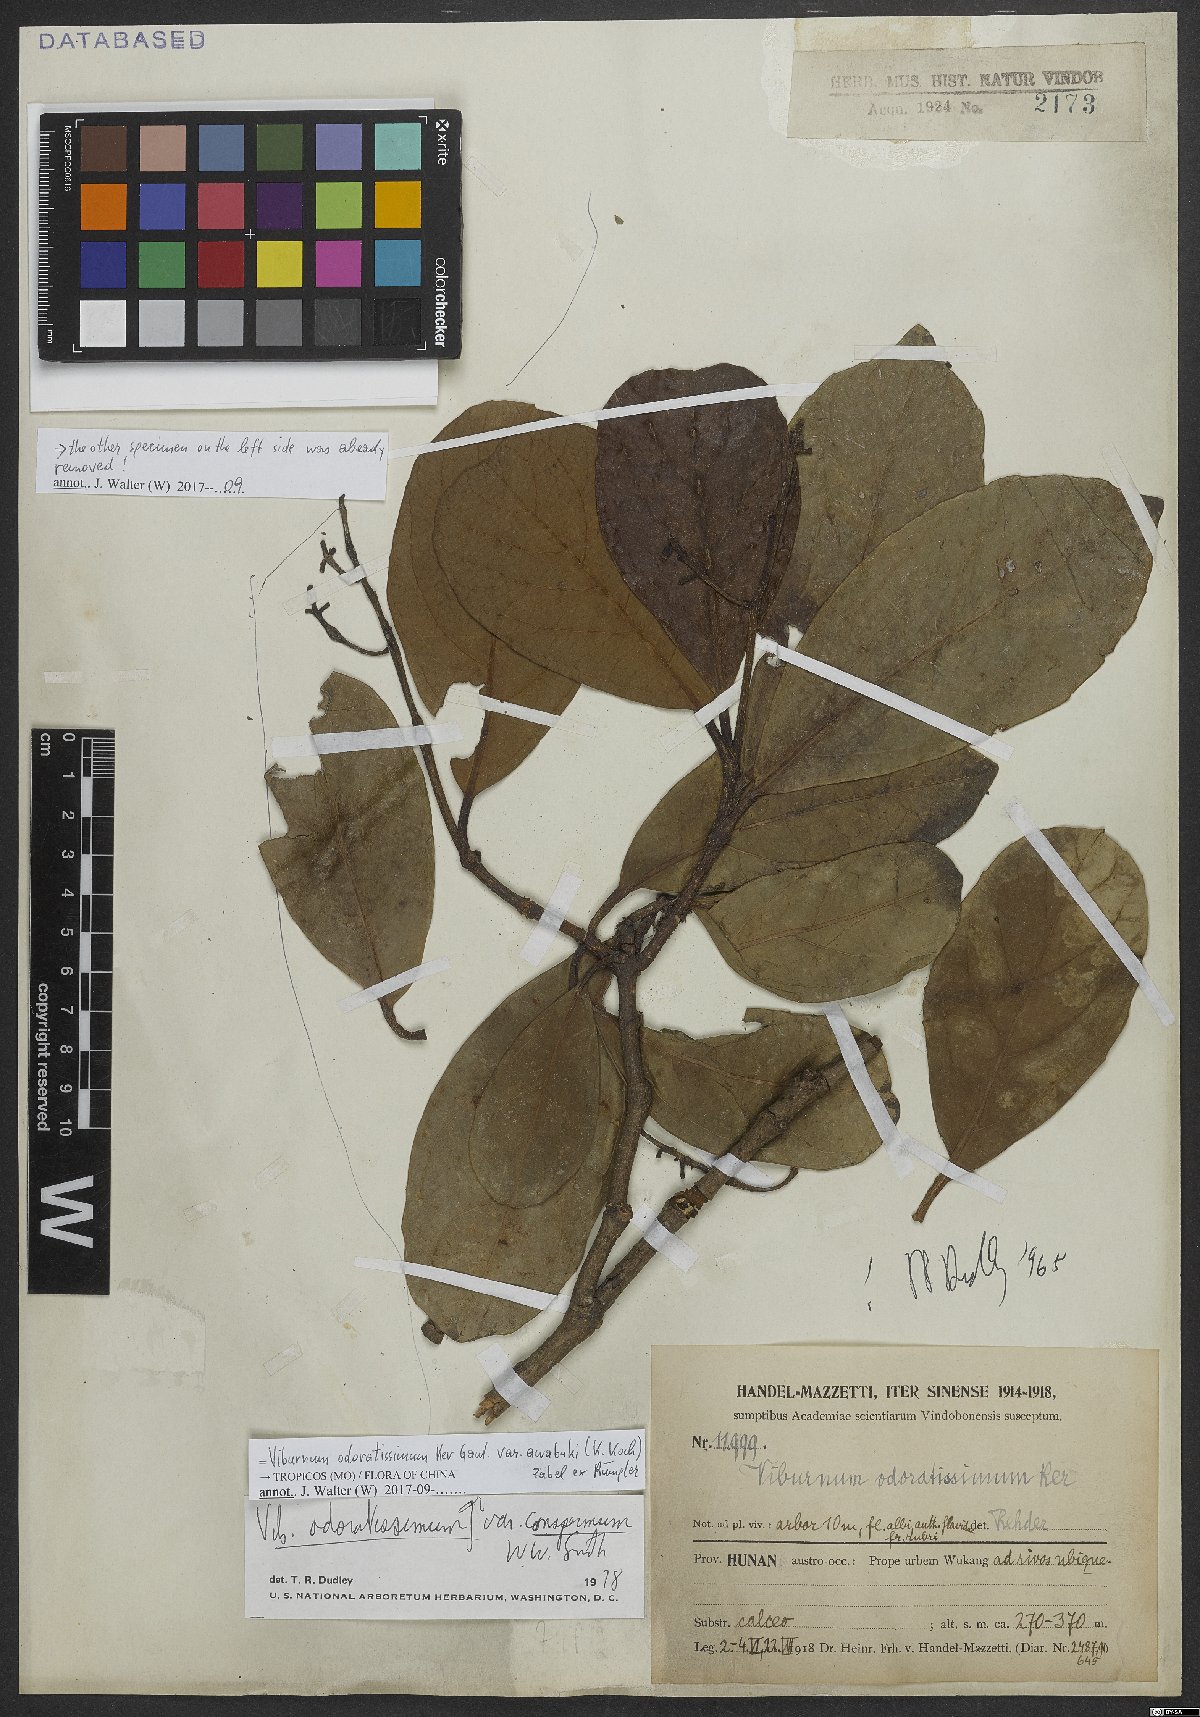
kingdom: Plantae
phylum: Tracheophyta
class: Magnoliopsida
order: Dipsacales
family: Viburnaceae
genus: Viburnum
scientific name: Viburnum cylindricum
